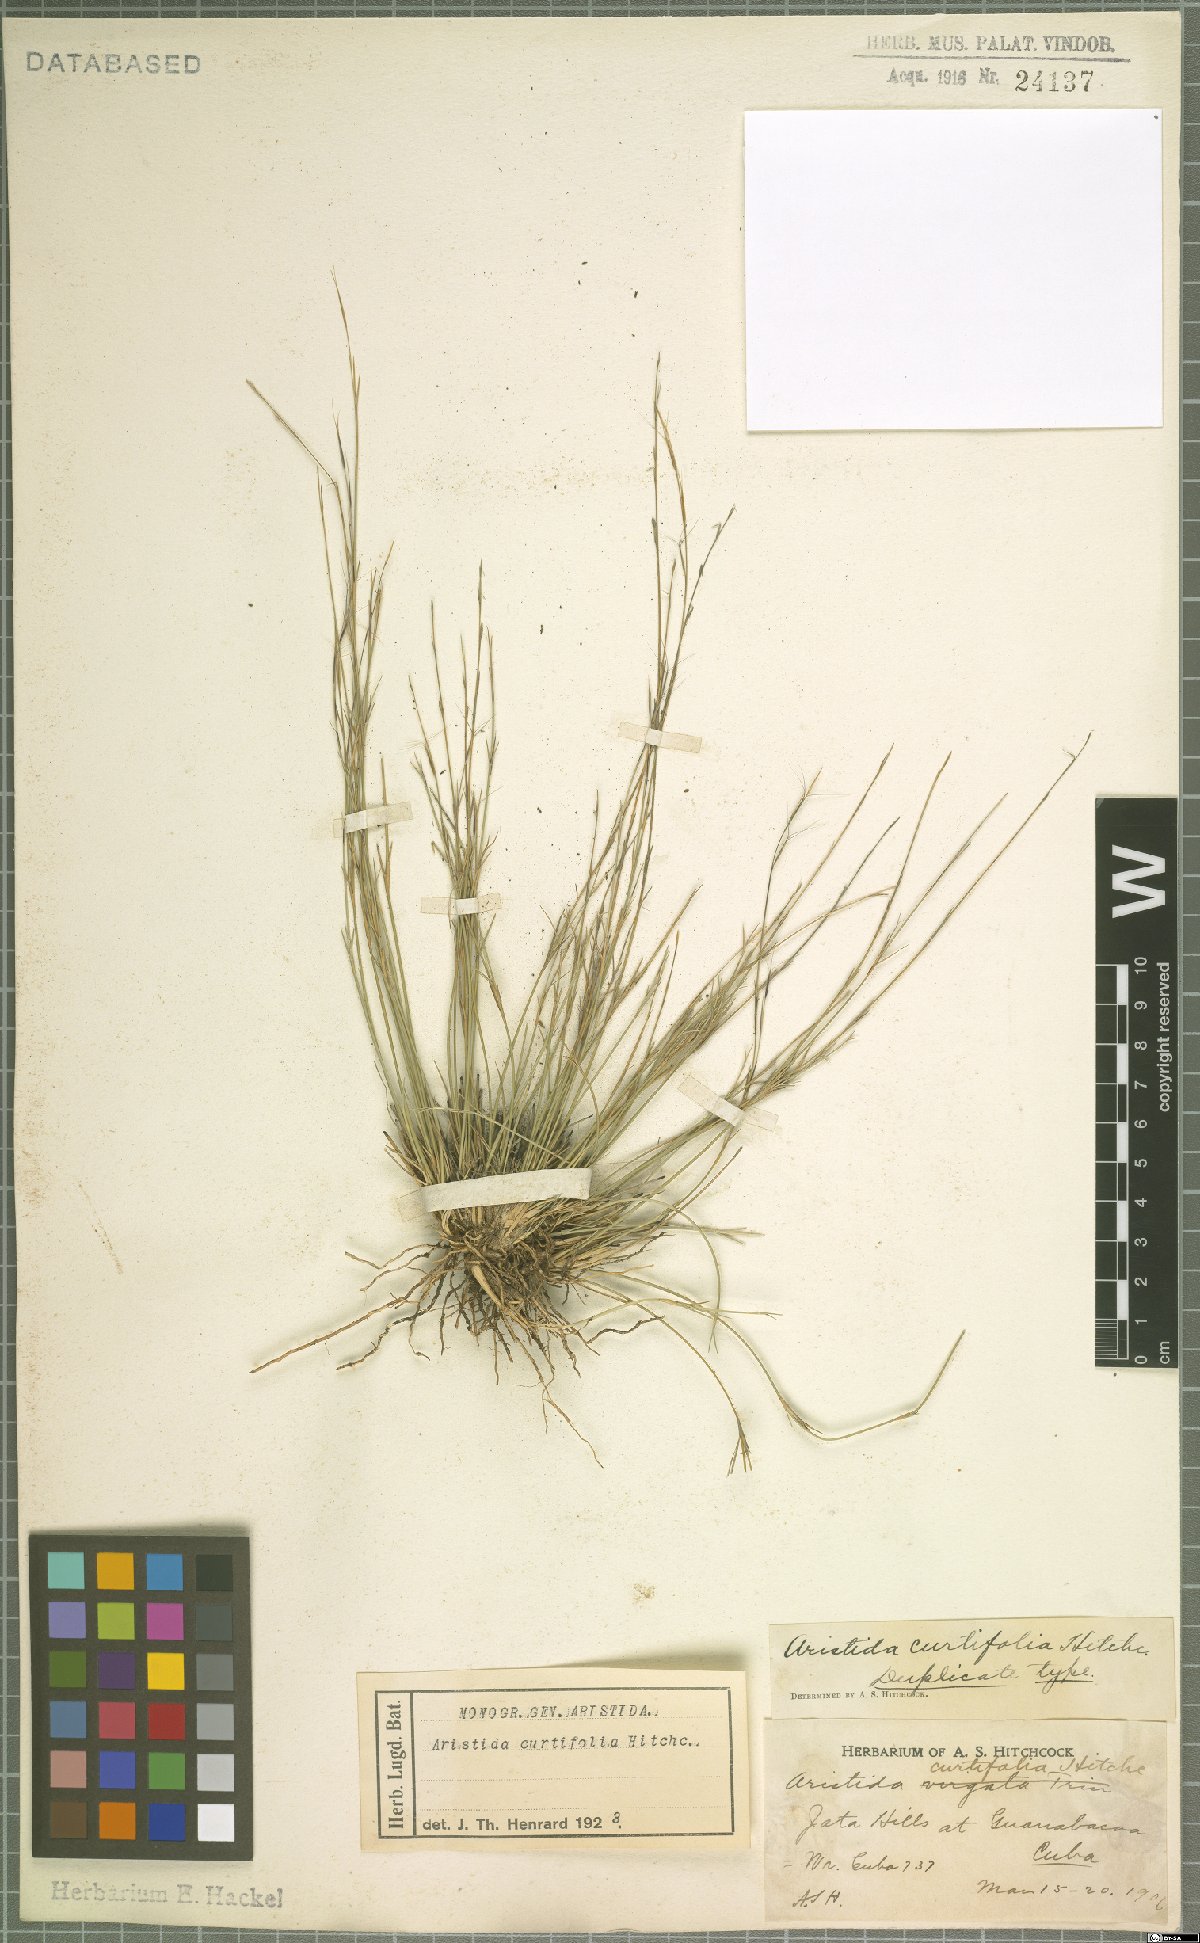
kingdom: Plantae
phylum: Tracheophyta
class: Liliopsida
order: Poales
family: Poaceae
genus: Aristida
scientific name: Aristida curtifolia
